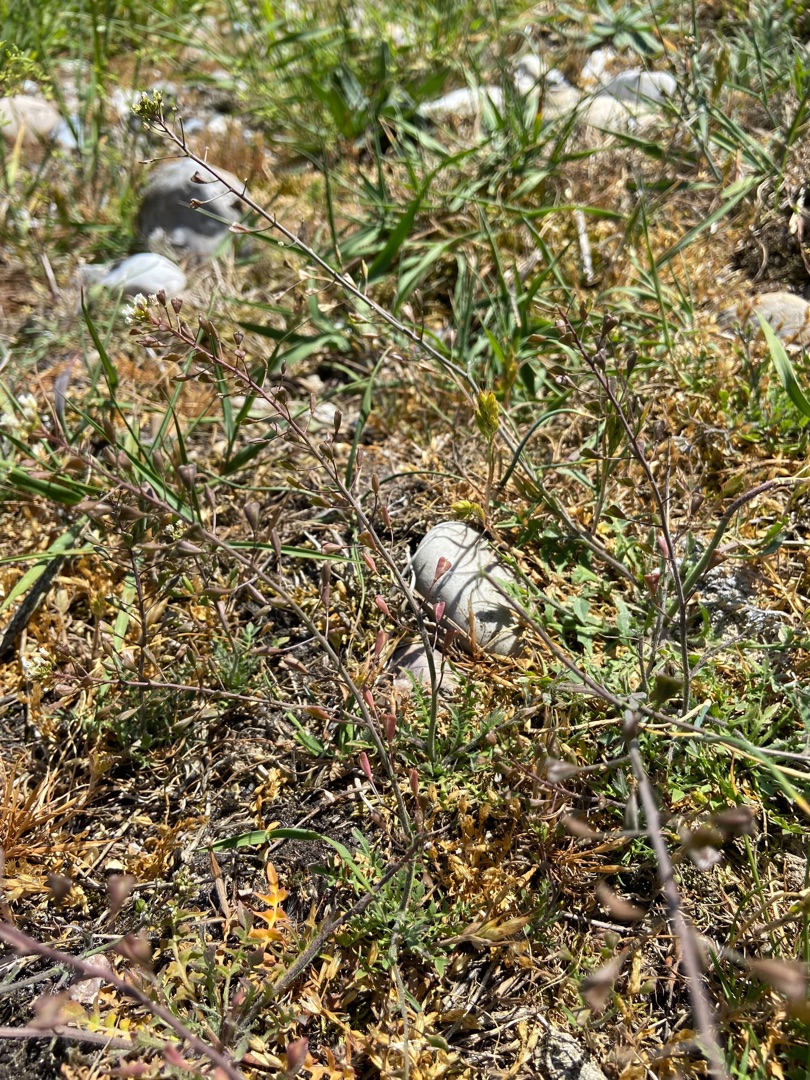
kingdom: Plantae
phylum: Tracheophyta
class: Magnoliopsida
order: Brassicales
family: Brassicaceae
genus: Capsella
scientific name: Capsella bursa-pastoris
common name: Hyrdetaske
